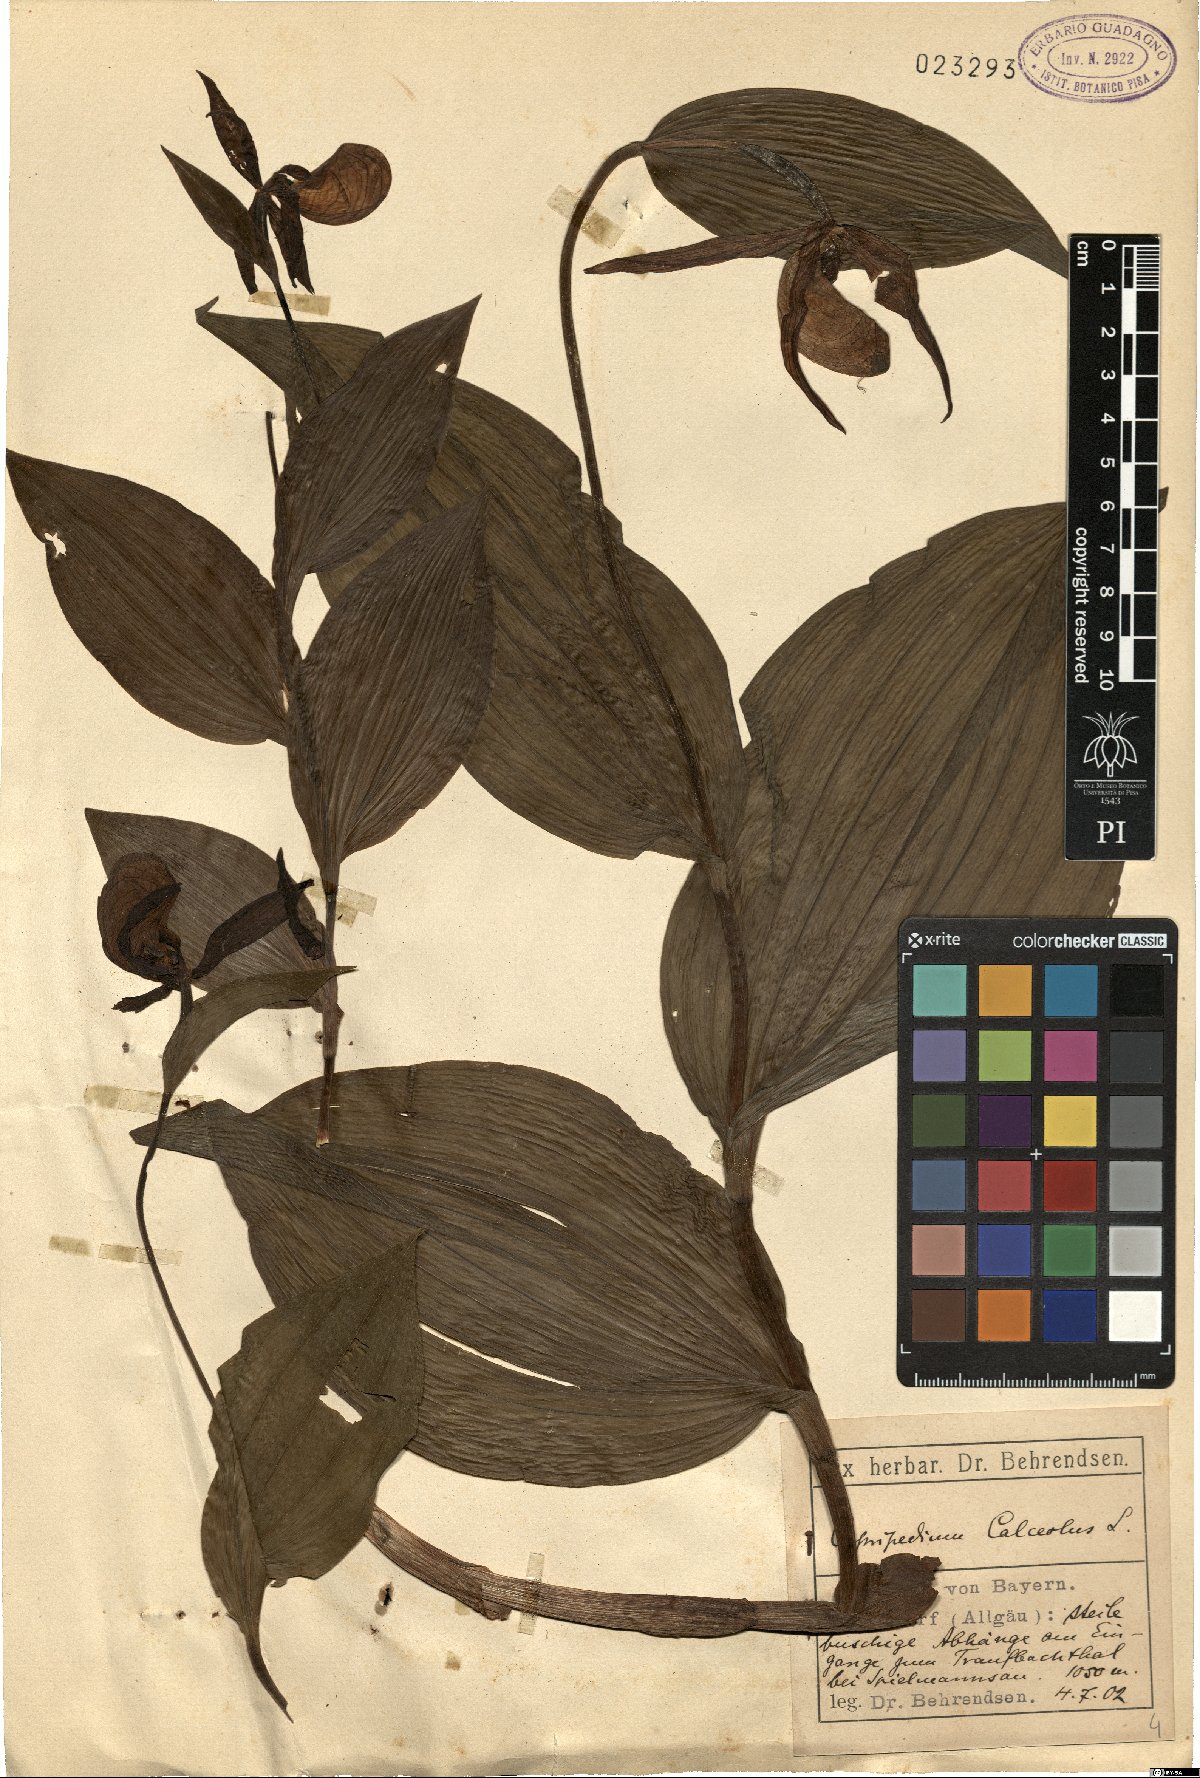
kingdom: Plantae
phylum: Tracheophyta
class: Liliopsida
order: Asparagales
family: Orchidaceae
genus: Cypripedium
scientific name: Cypripedium calceolus
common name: Lady's-slipper
